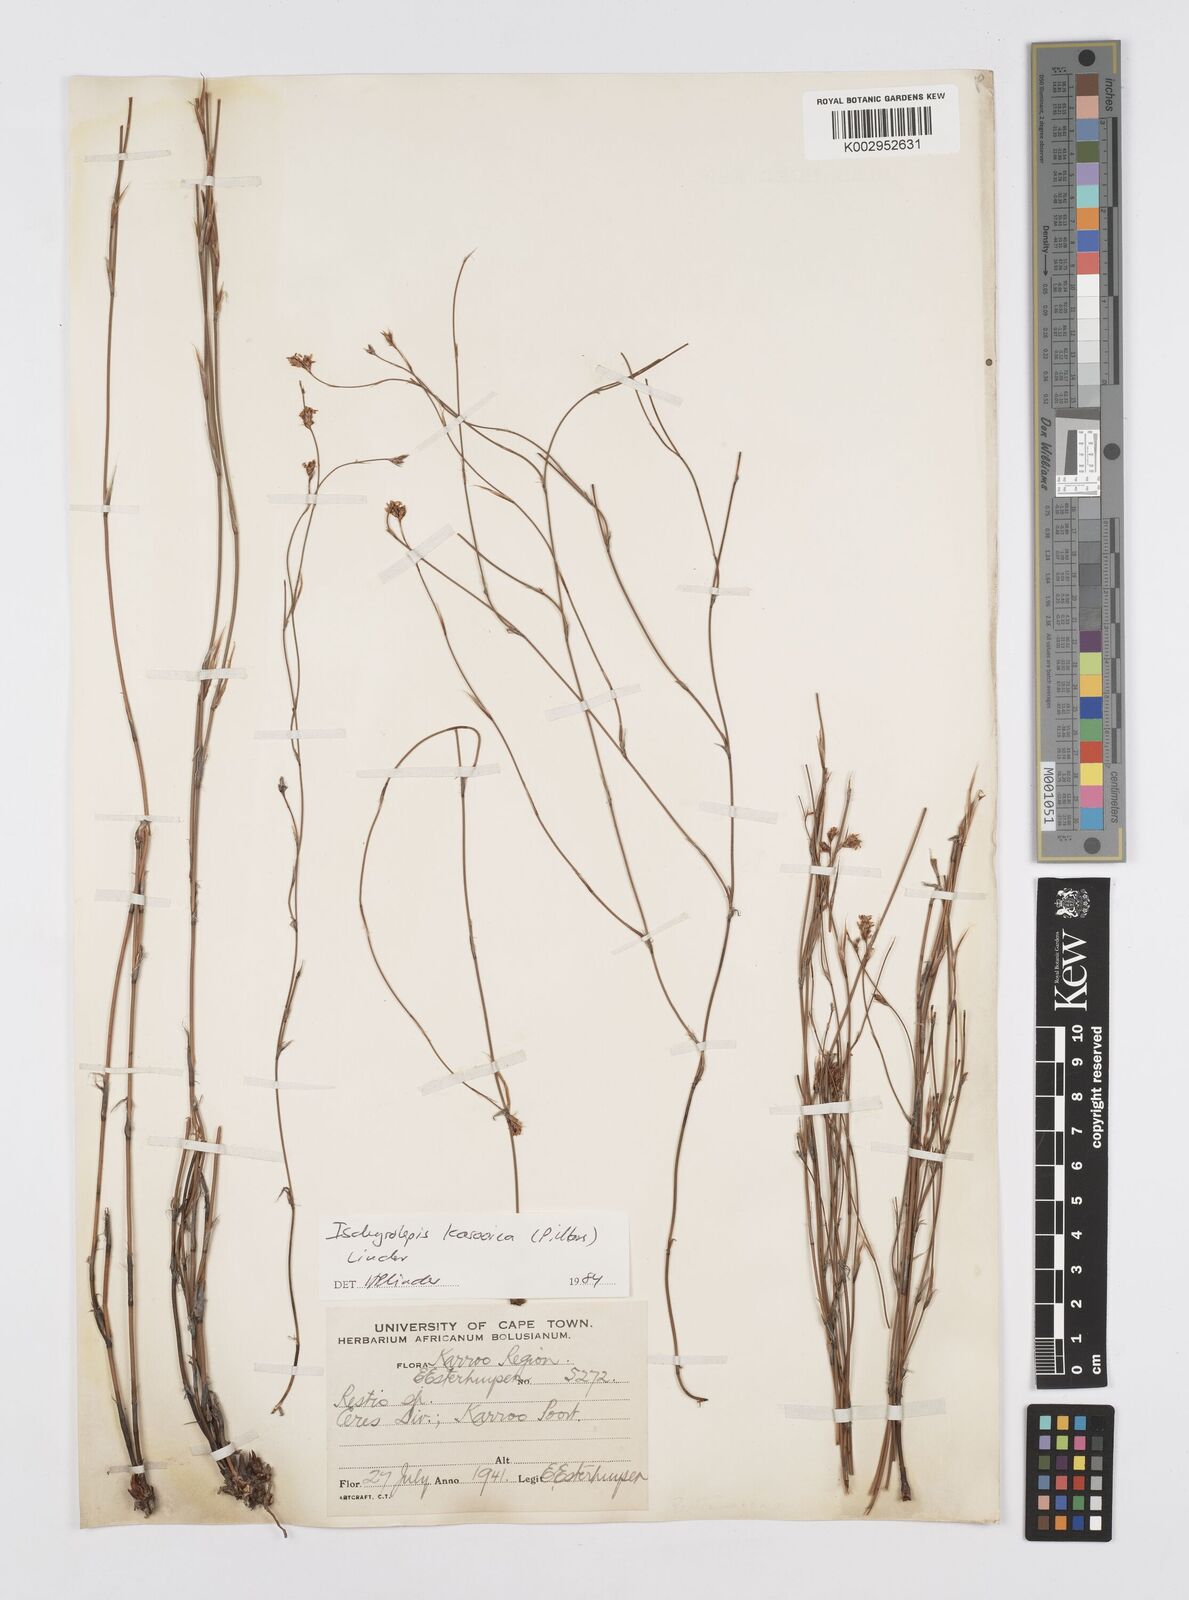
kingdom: Plantae
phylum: Tracheophyta
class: Liliopsida
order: Poales
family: Restionaceae
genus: Restio
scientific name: Restio karooicus
